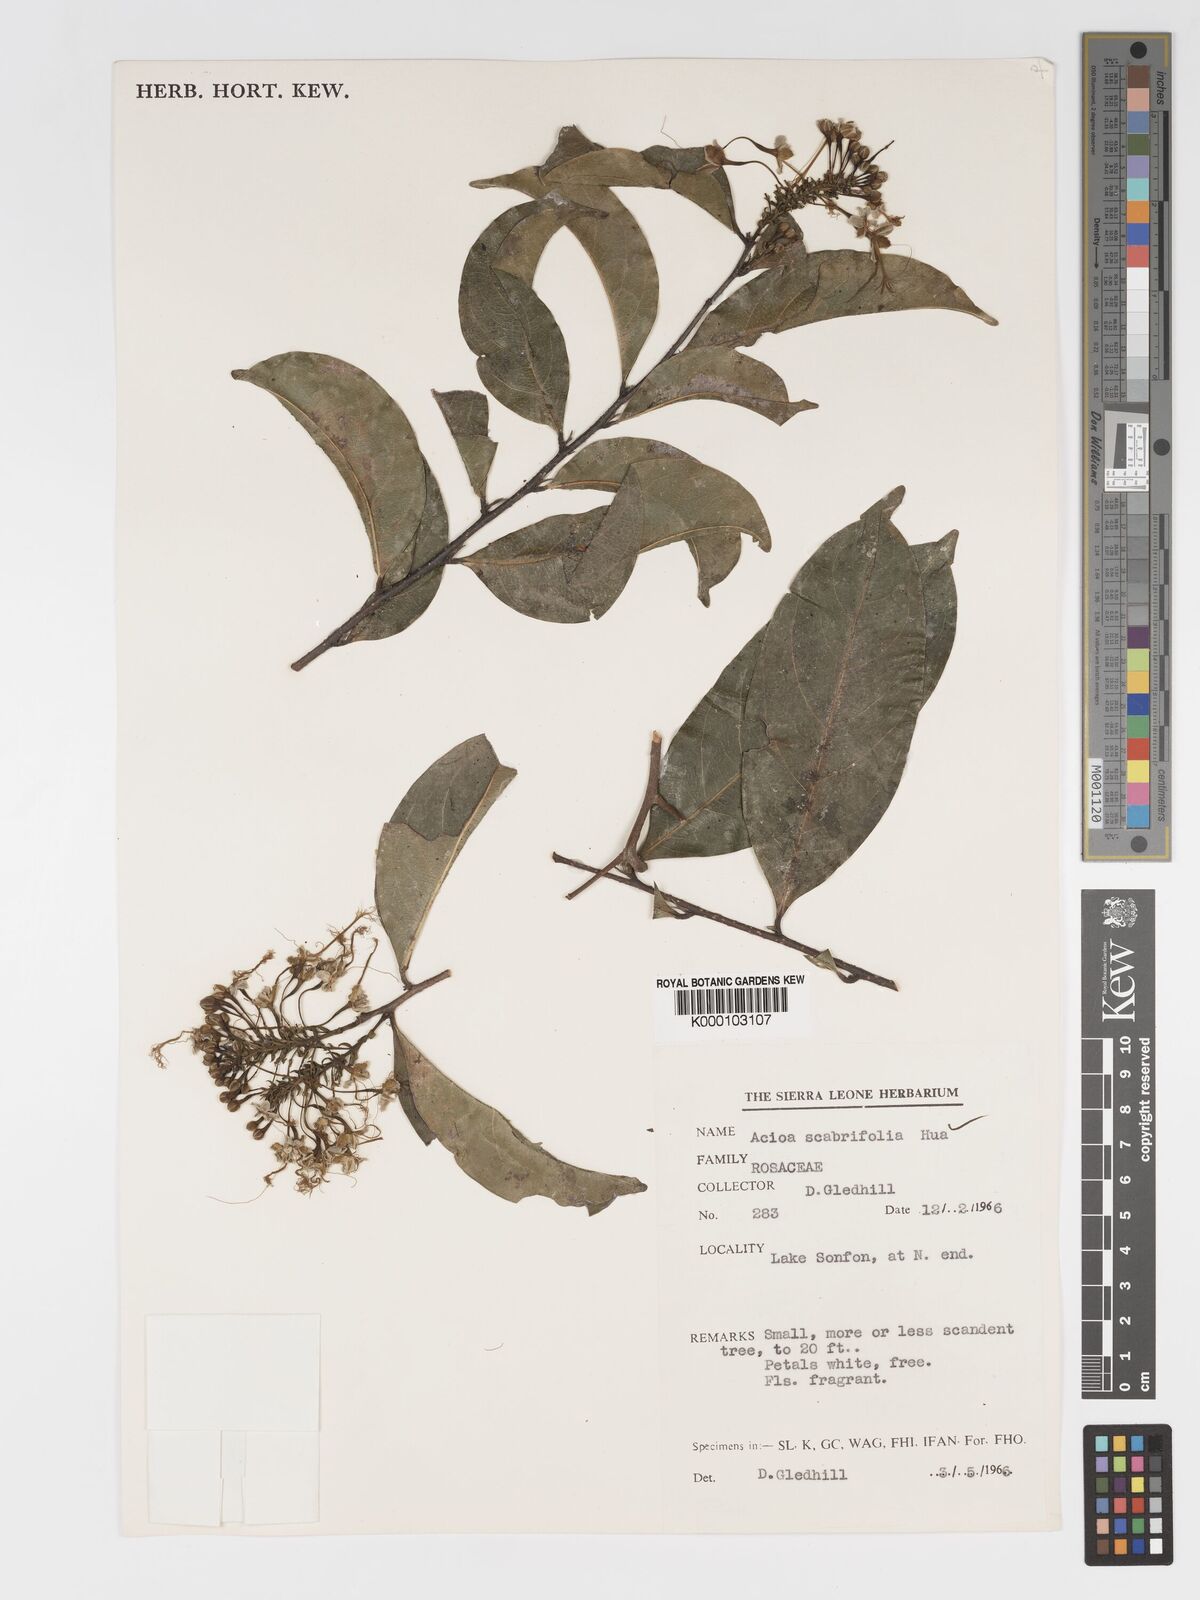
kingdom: Plantae
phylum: Tracheophyta
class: Magnoliopsida
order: Malpighiales
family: Chrysobalanaceae
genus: Dactyladenia
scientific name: Dactyladenia scabrifolia
